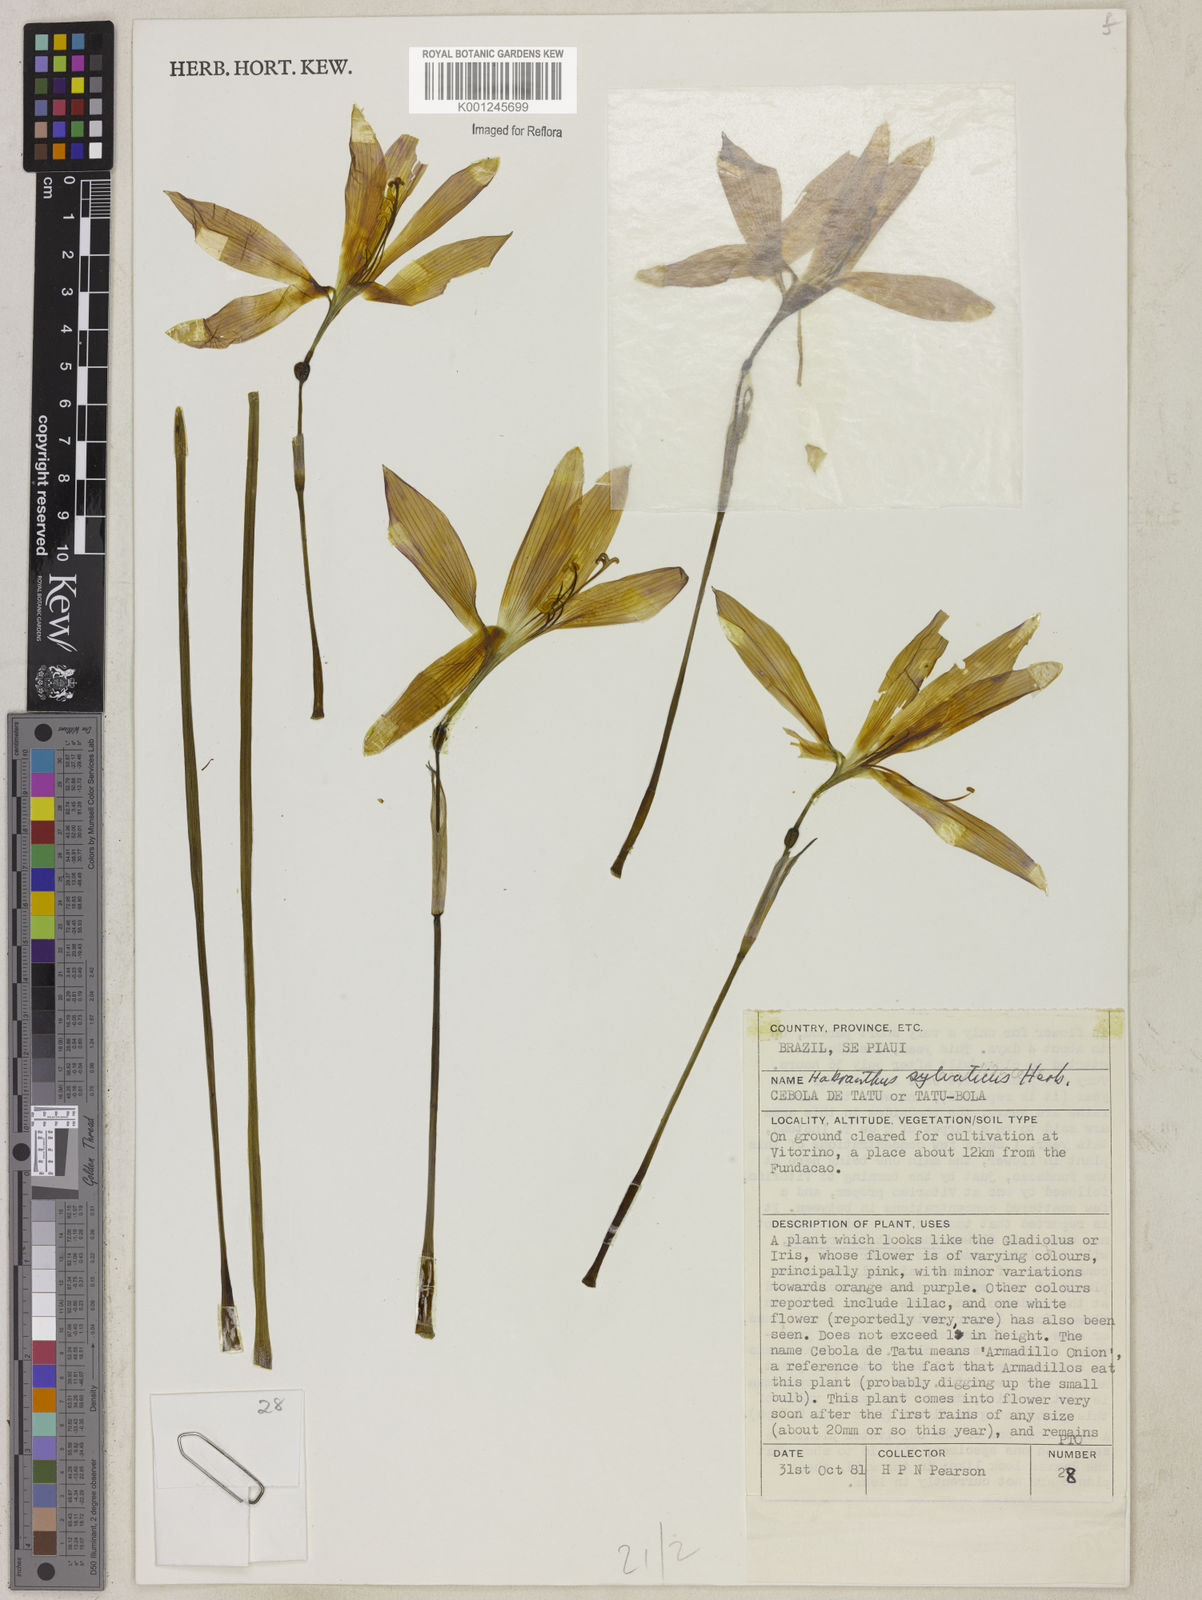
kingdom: Plantae
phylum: Tracheophyta
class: Liliopsida
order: Asparagales
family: Amaryllidaceae
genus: Rhodophiala
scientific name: Rhodophiala
